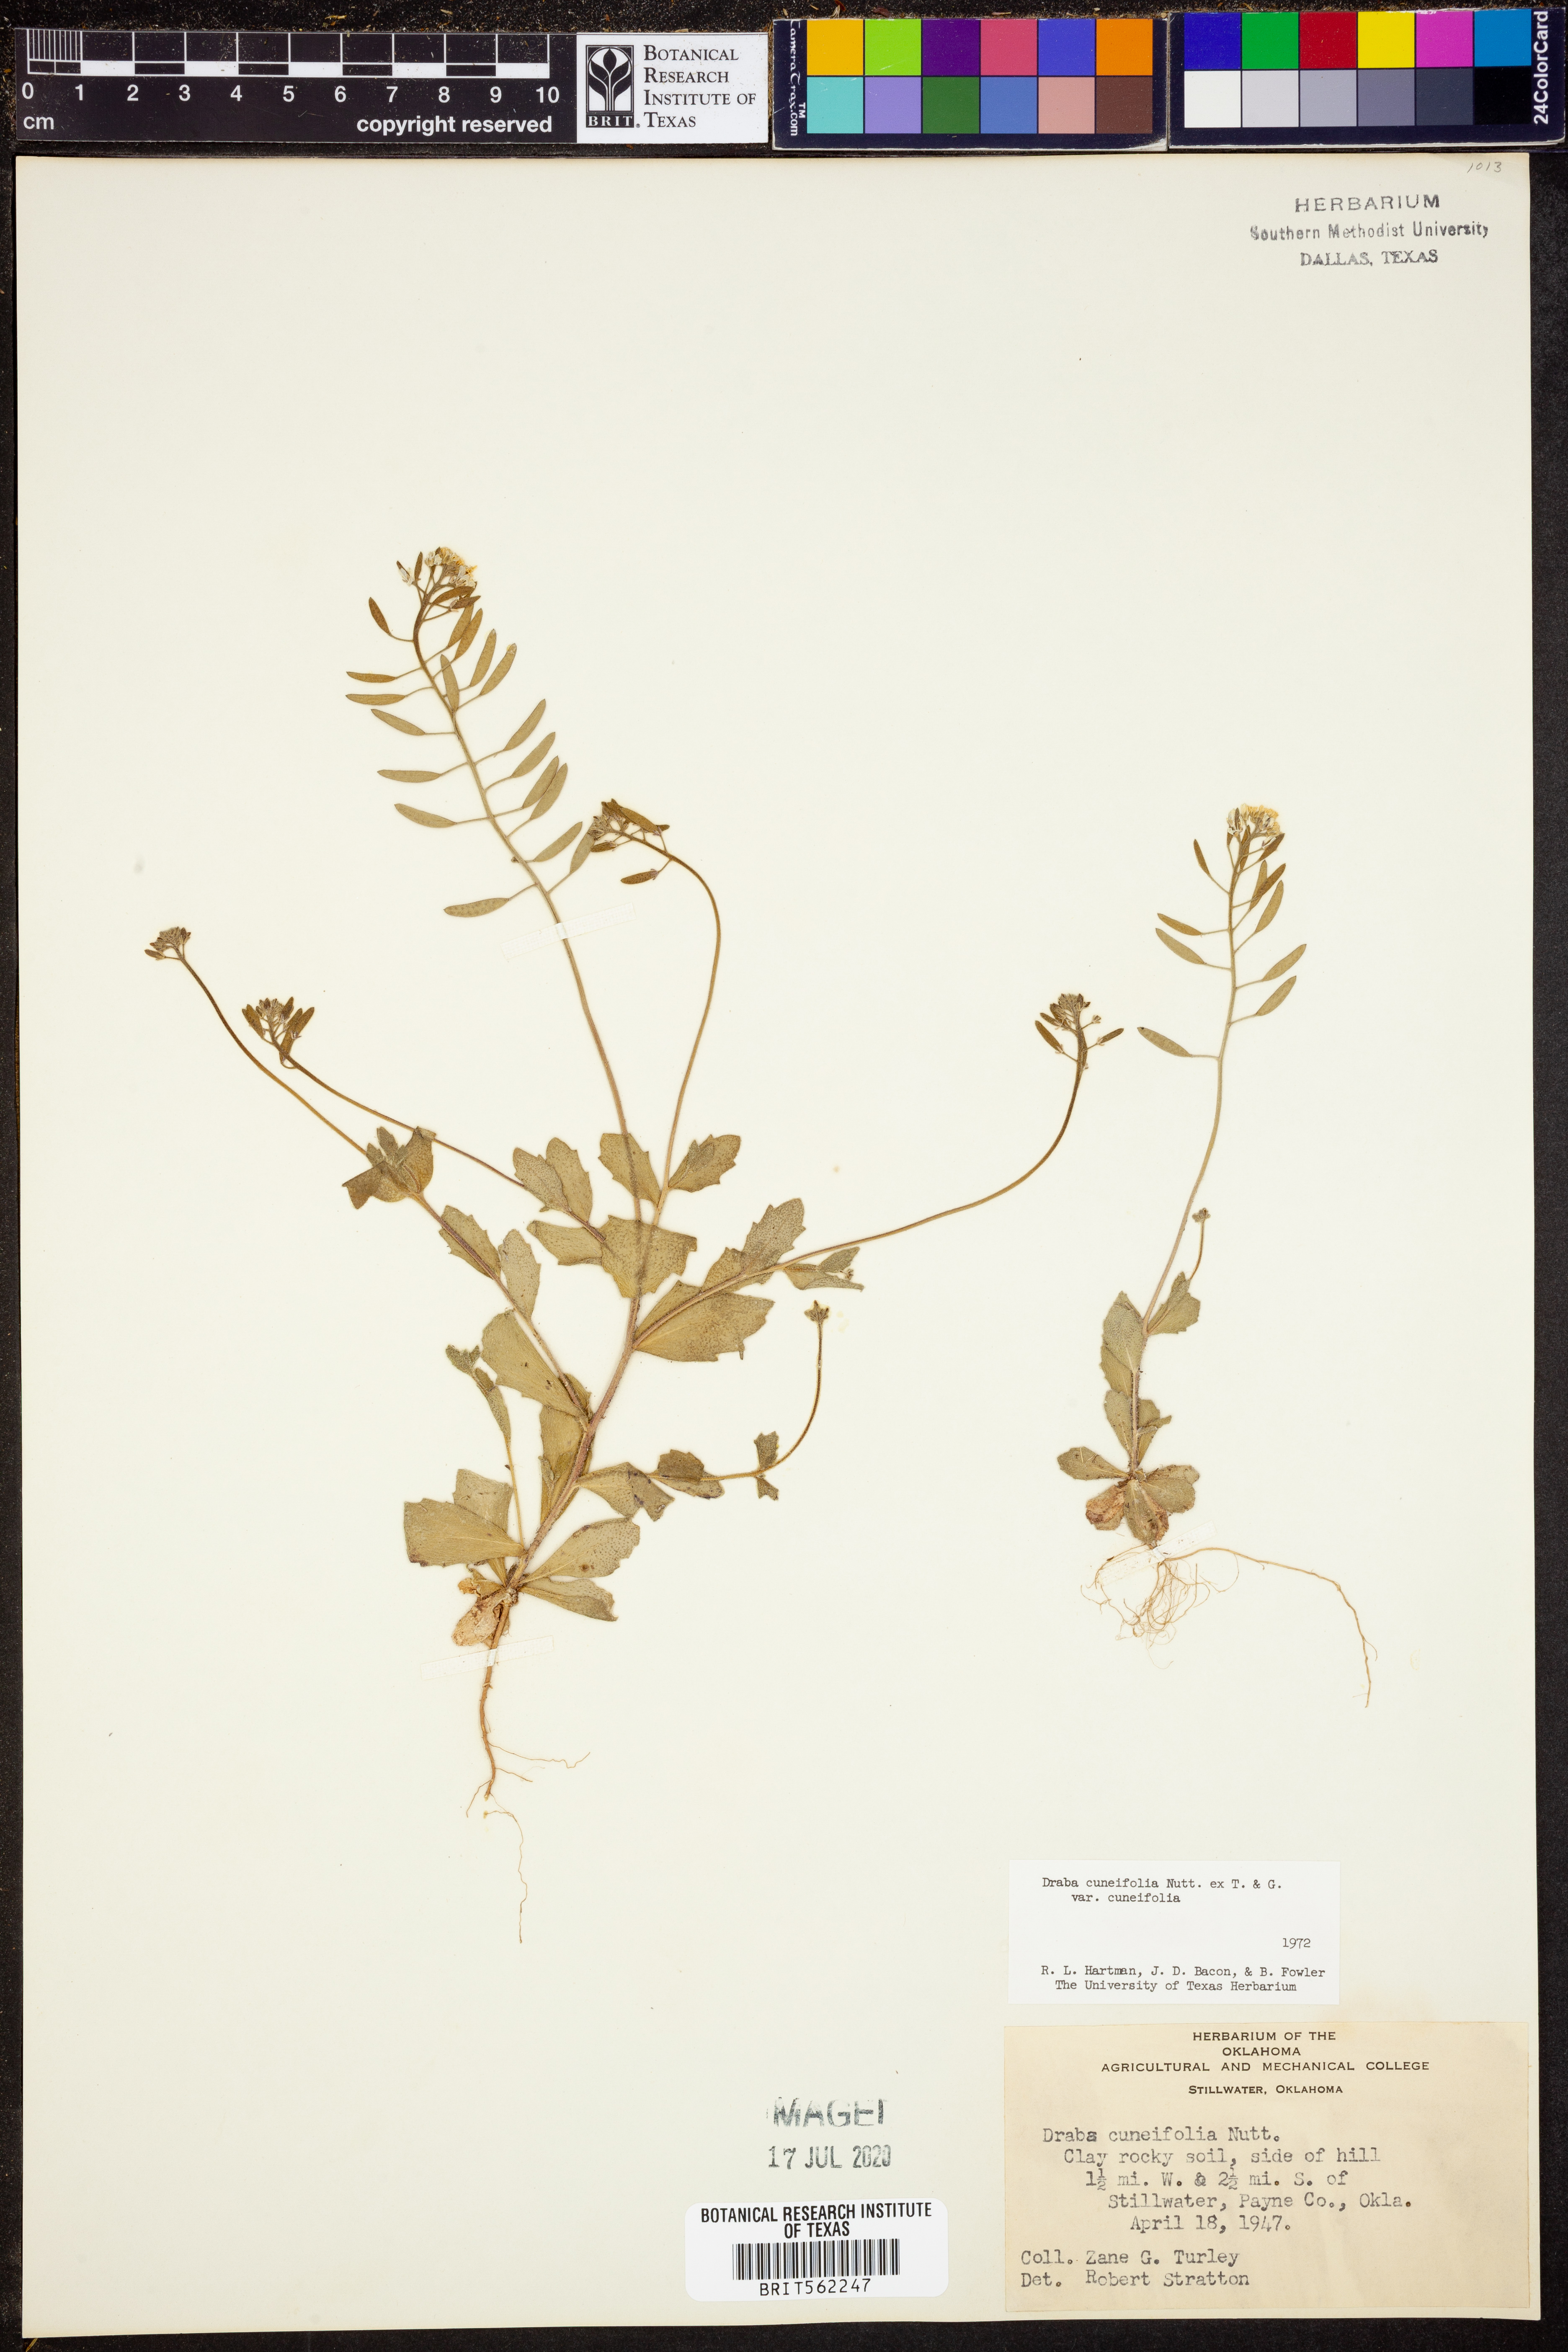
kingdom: Plantae
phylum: Tracheophyta
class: Magnoliopsida
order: Brassicales
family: Brassicaceae
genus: Tomostima
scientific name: Tomostima cuneifolia
